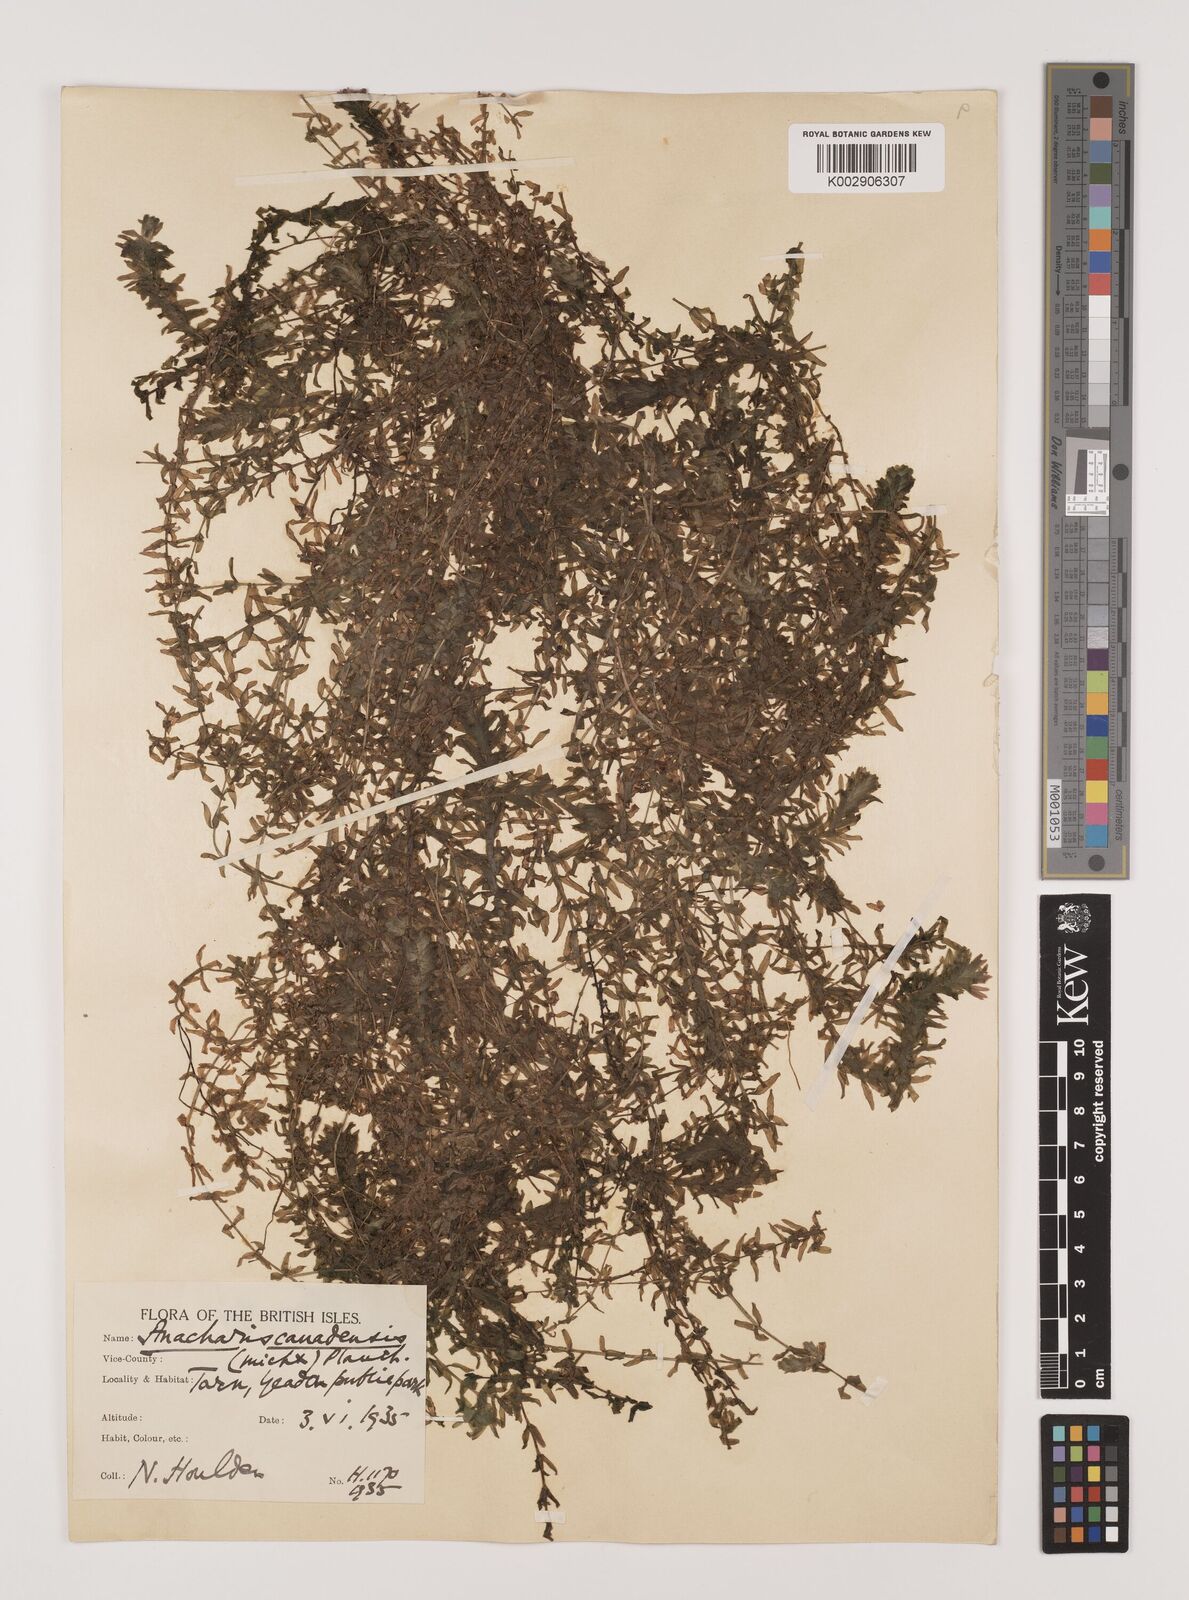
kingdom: Plantae
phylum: Tracheophyta
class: Liliopsida
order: Alismatales
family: Hydrocharitaceae
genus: Elodea
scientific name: Elodea canadensis
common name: Canadian waterweed
